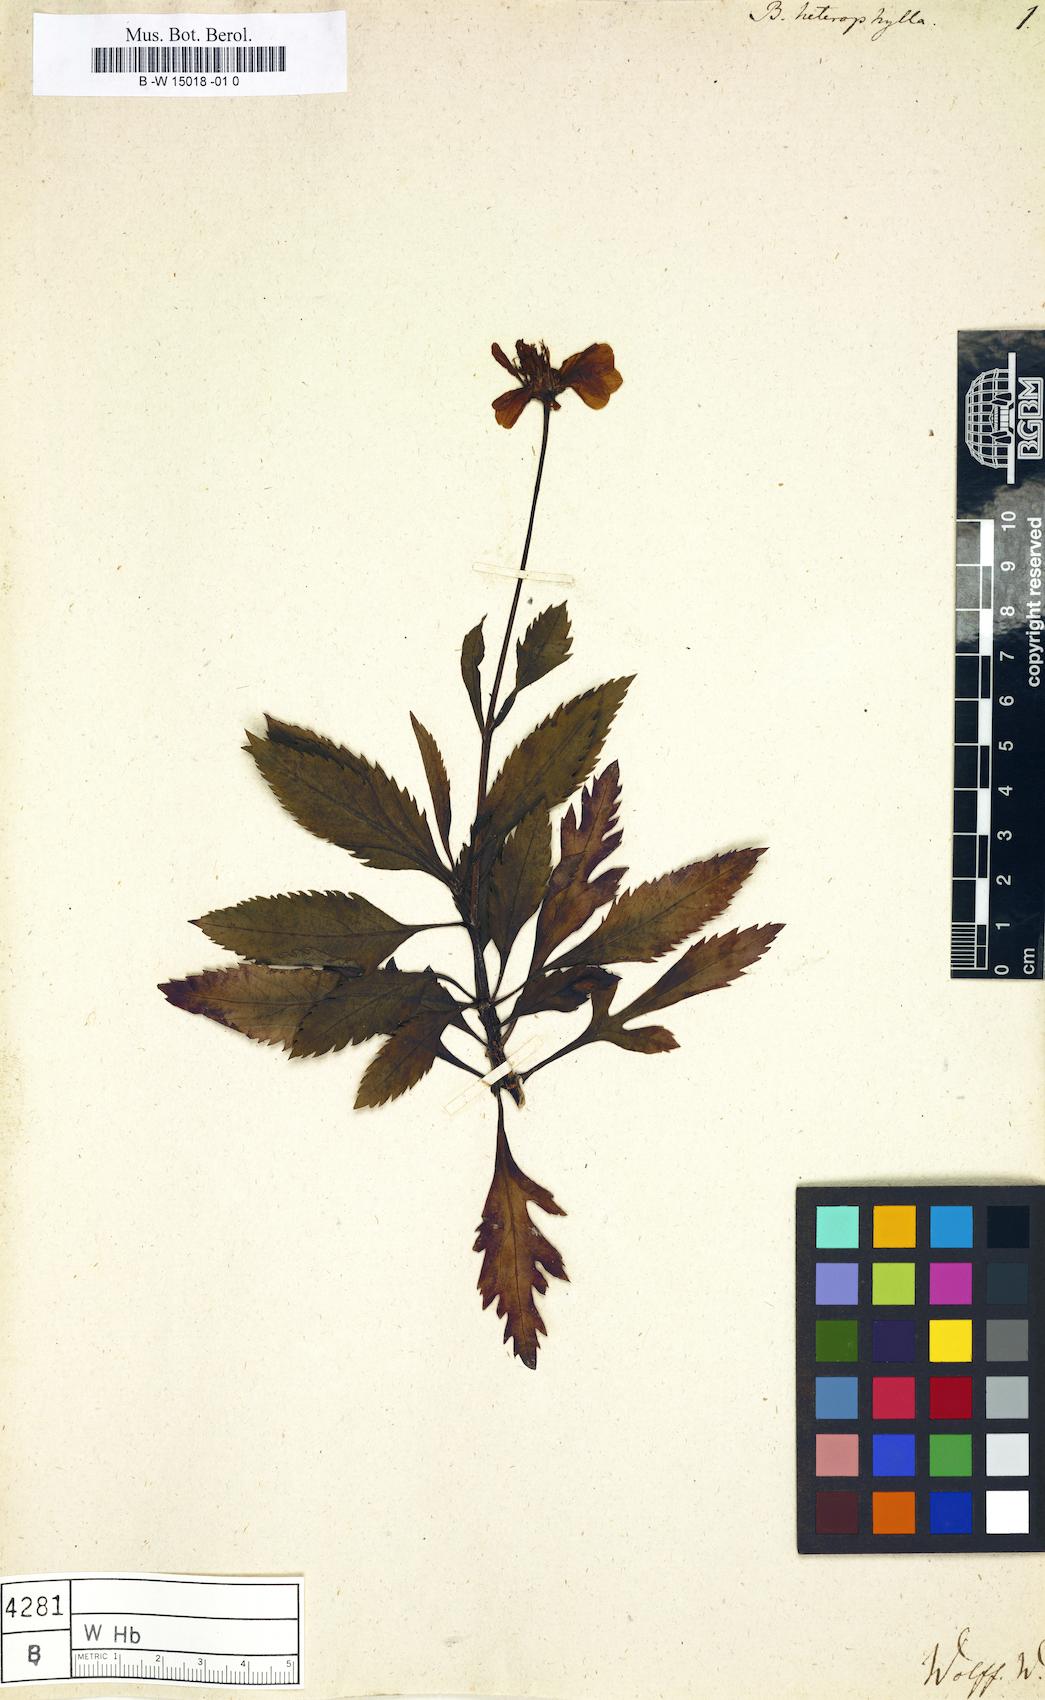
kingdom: Plantae
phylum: Tracheophyta
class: Magnoliopsida
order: Asterales
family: Asteraceae
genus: Bidens
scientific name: Bidens aurea
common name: Arizona beggar-ticks
